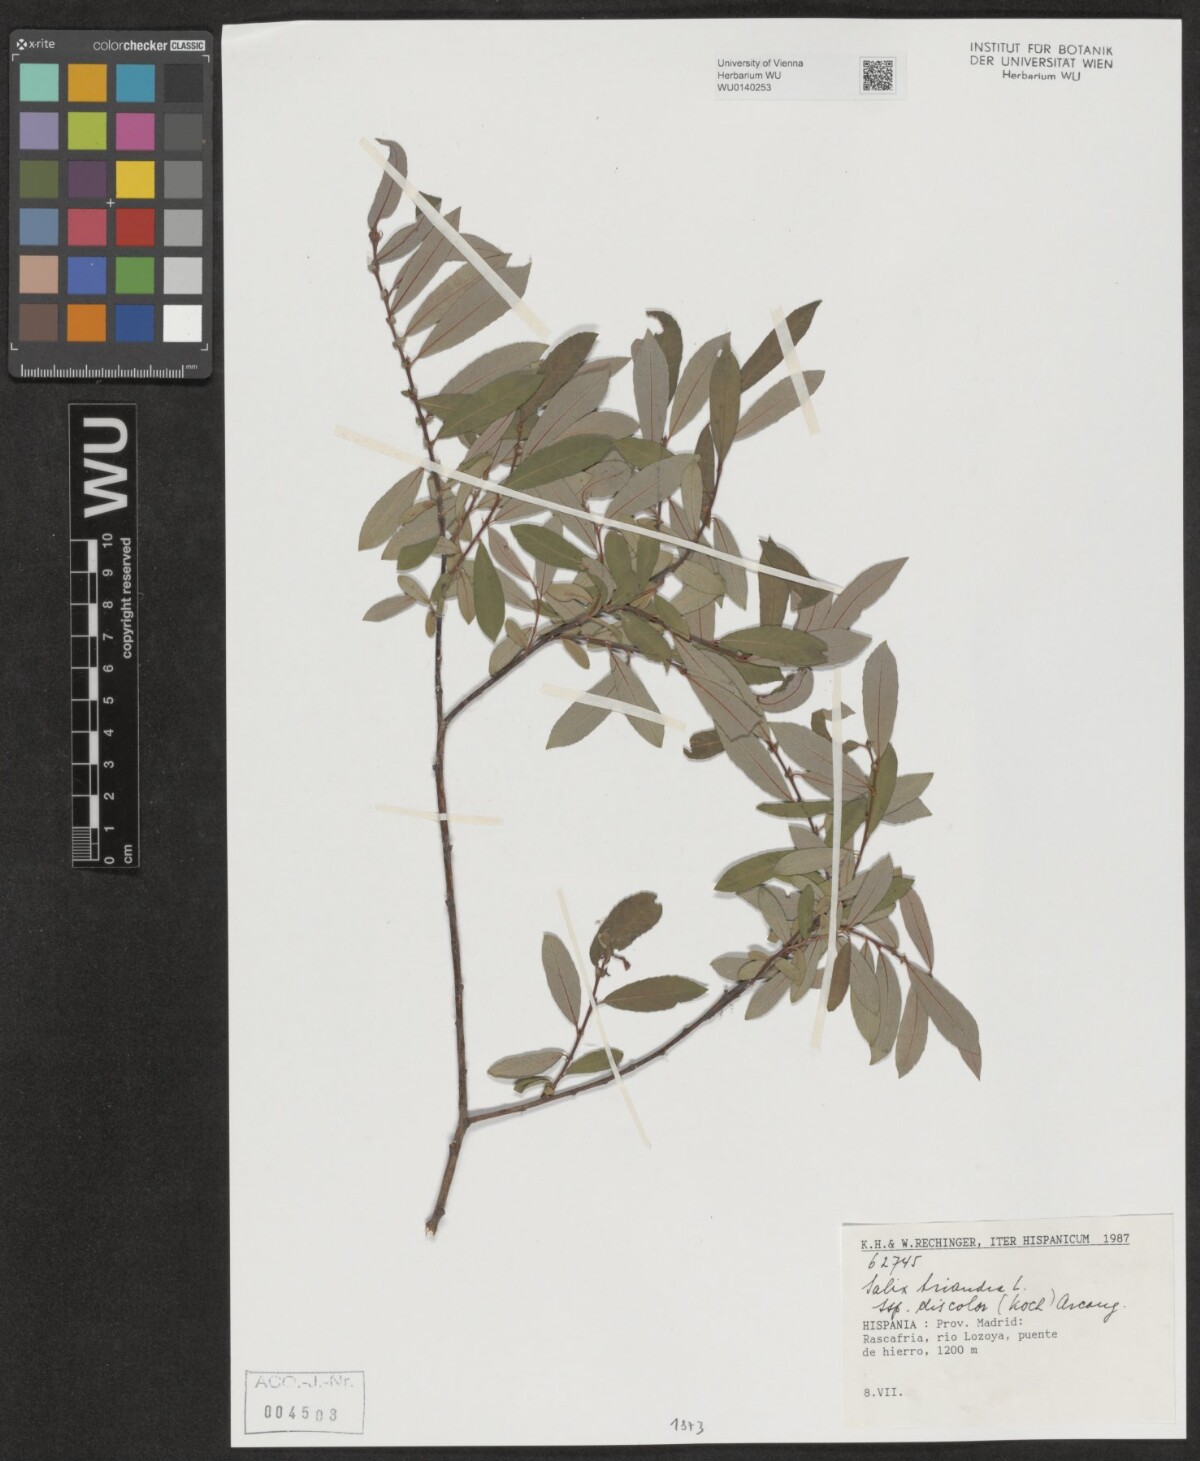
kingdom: Plantae
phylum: Tracheophyta
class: Magnoliopsida
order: Malpighiales
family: Salicaceae
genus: Salix
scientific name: Salix triandra
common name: Almond willow
